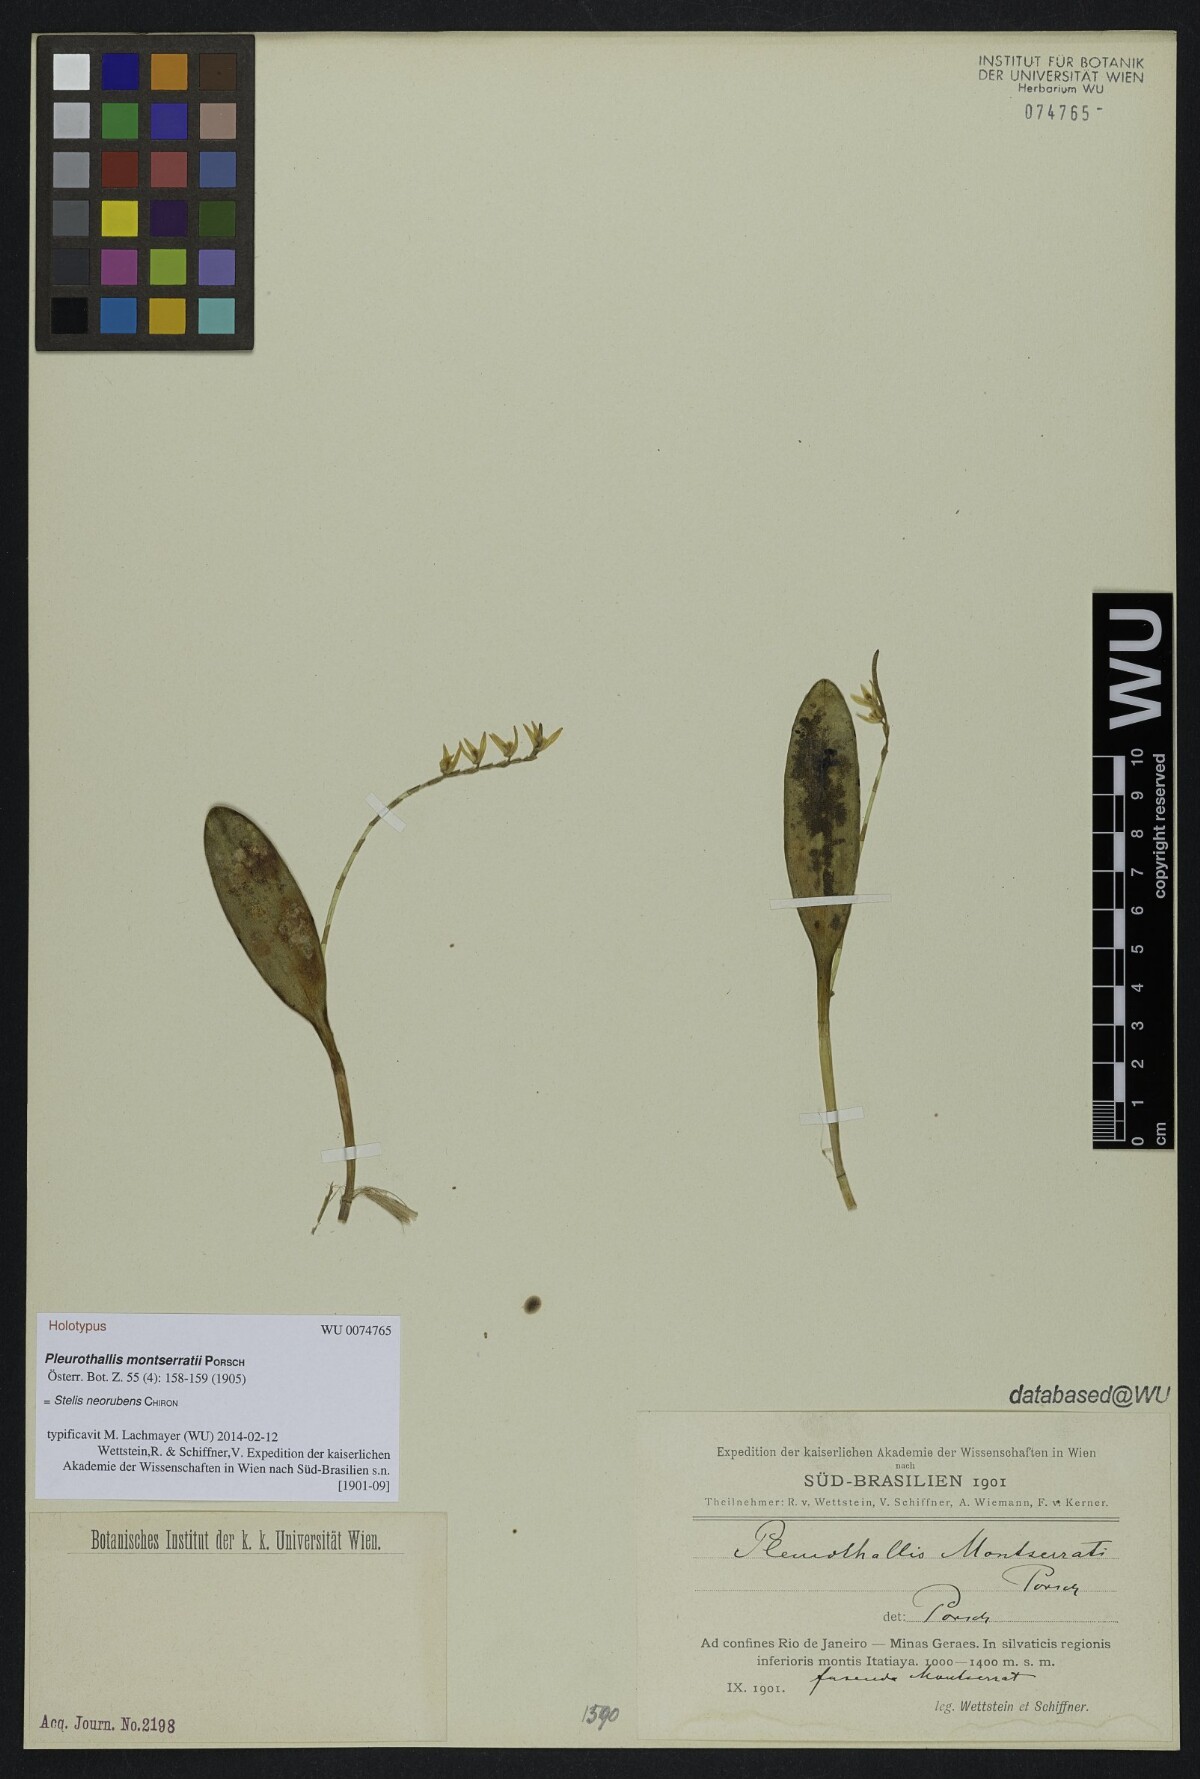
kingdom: Plantae
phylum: Tracheophyta
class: Liliopsida
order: Asparagales
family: Orchidaceae
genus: Stelis
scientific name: Stelis montserratii
